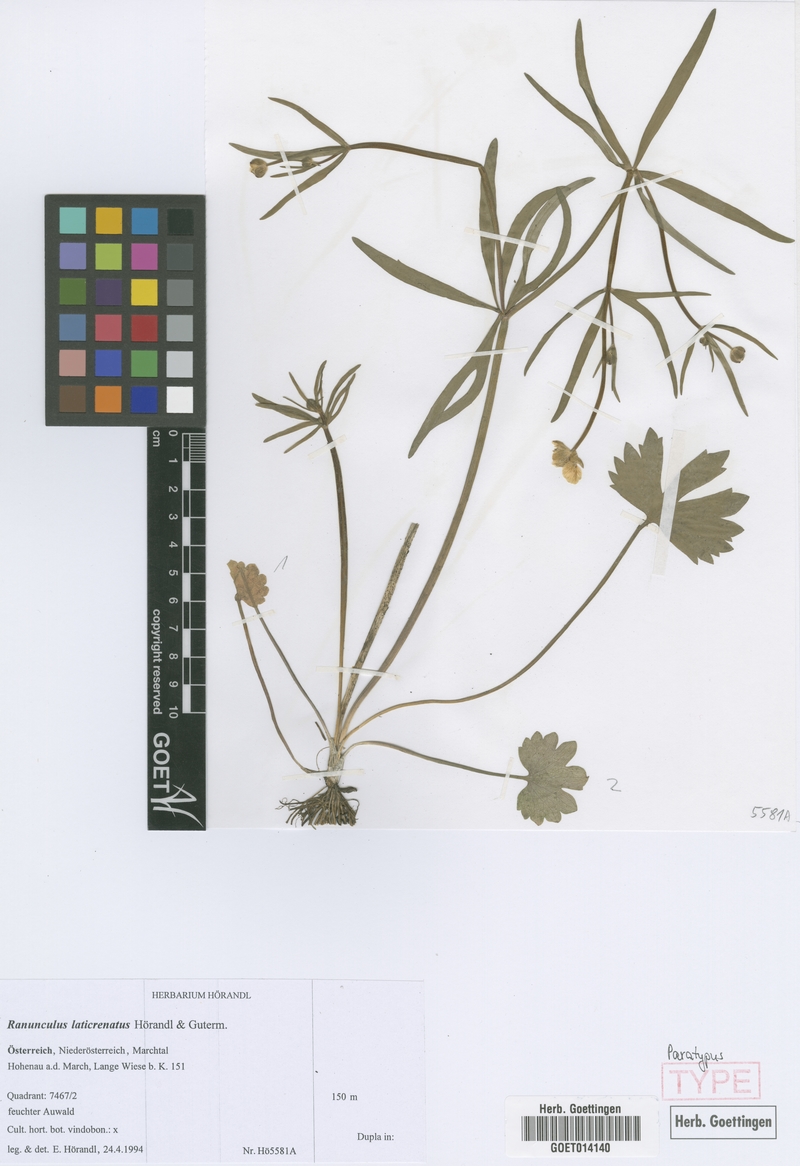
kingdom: Plantae
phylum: Tracheophyta
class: Magnoliopsida
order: Ranunculales
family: Ranunculaceae
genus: Ranunculus
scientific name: Ranunculus laticrenatus
